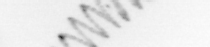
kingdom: Chromista
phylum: Ochrophyta
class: Bacillariophyceae
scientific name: Bacillariophyceae
